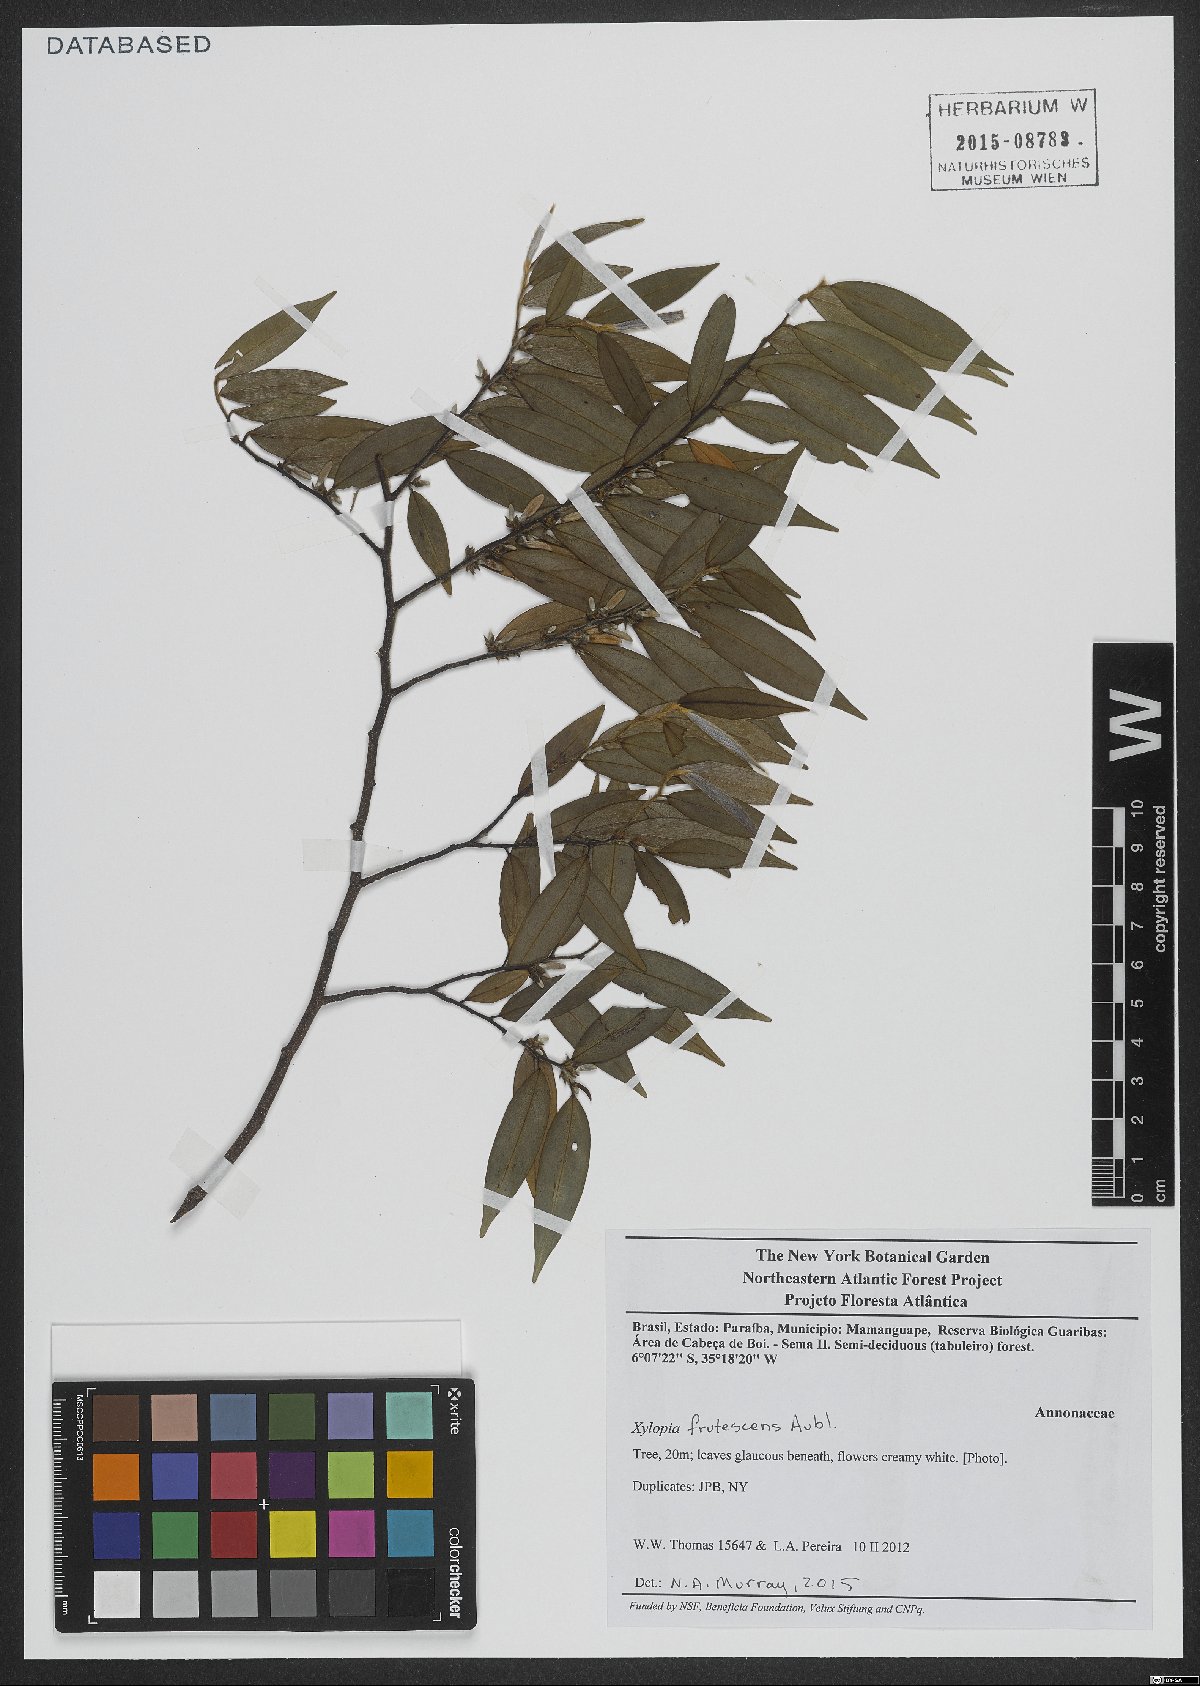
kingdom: Plantae
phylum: Tracheophyta
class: Magnoliopsida
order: Magnoliales
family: Annonaceae
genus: Xylopia
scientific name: Xylopia frutescens
